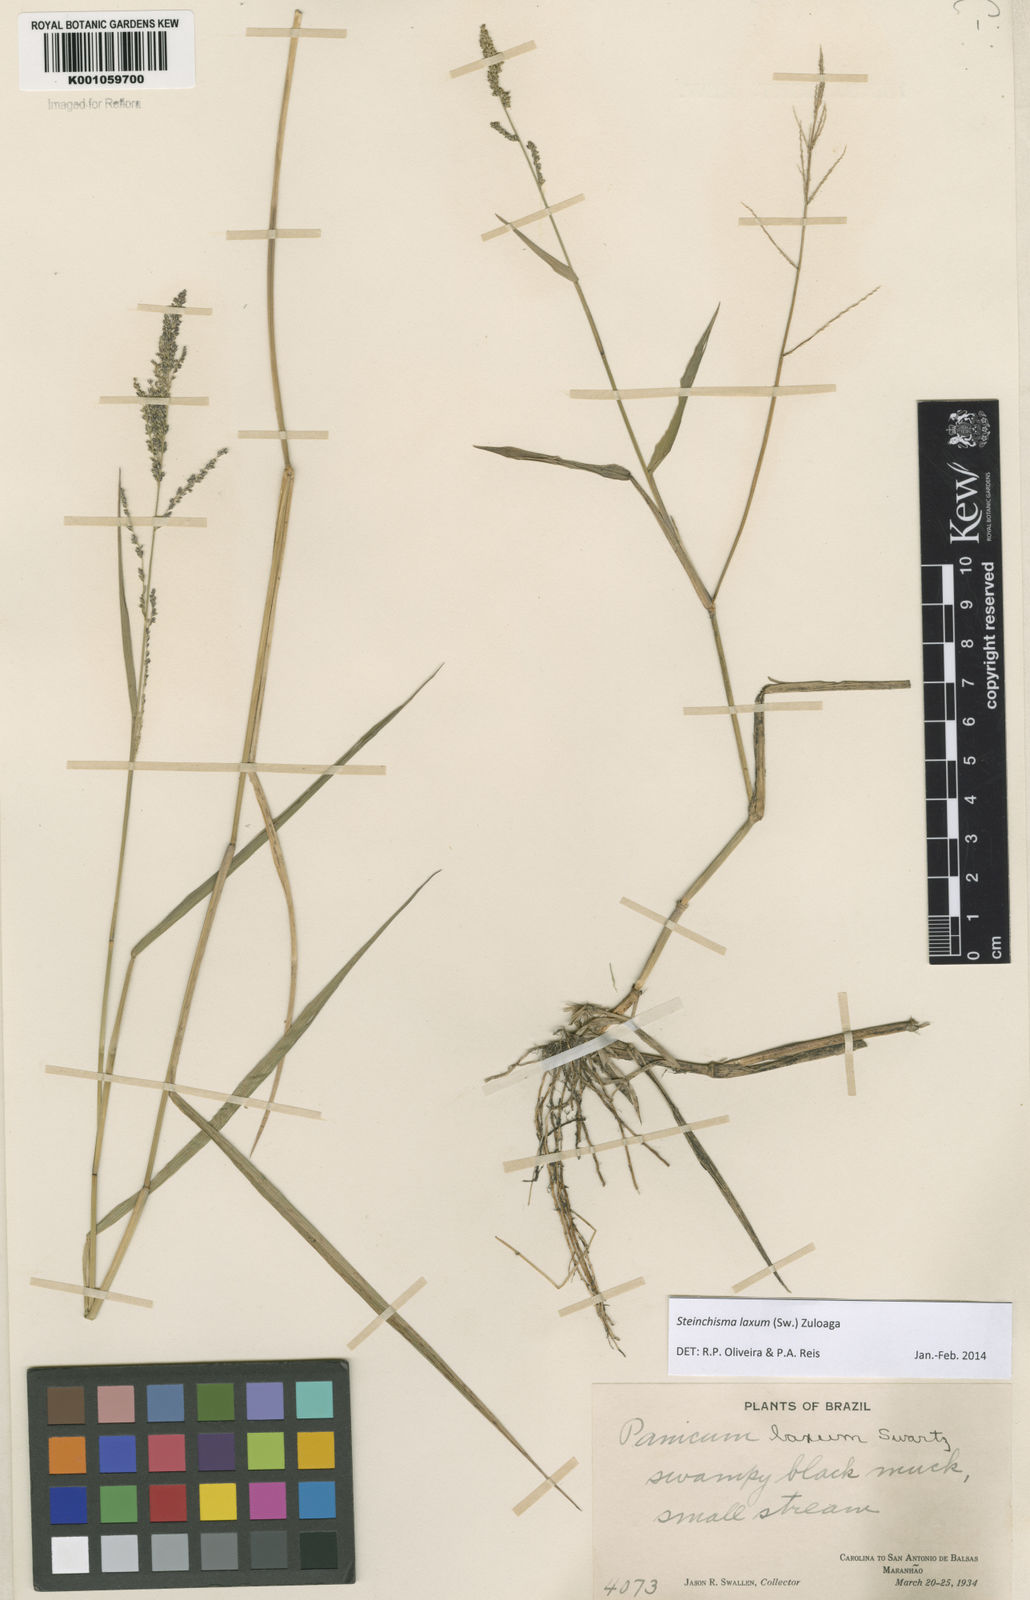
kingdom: Plantae
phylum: Tracheophyta
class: Liliopsida
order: Poales
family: Poaceae
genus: Steinchisma
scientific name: Steinchisma laxum
